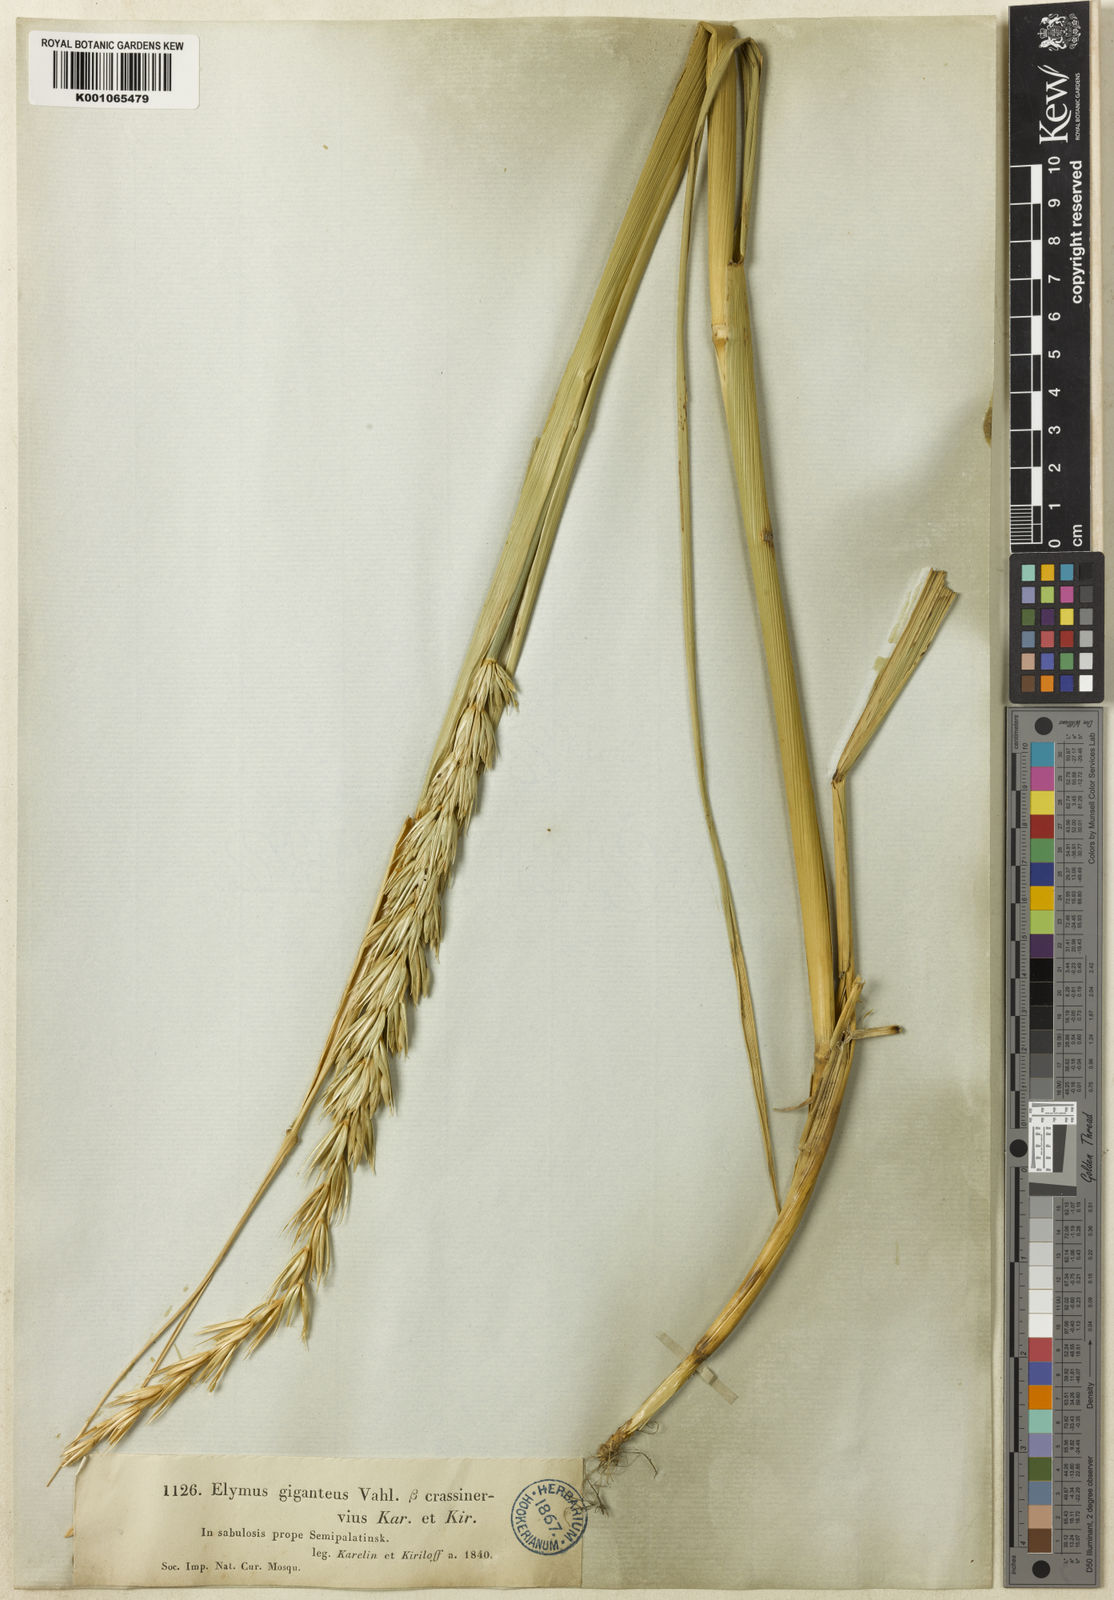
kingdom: Plantae
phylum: Tracheophyta
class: Liliopsida
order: Poales
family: Poaceae
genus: Leymus
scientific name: Leymus racemosus
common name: Mammoth wildrye
